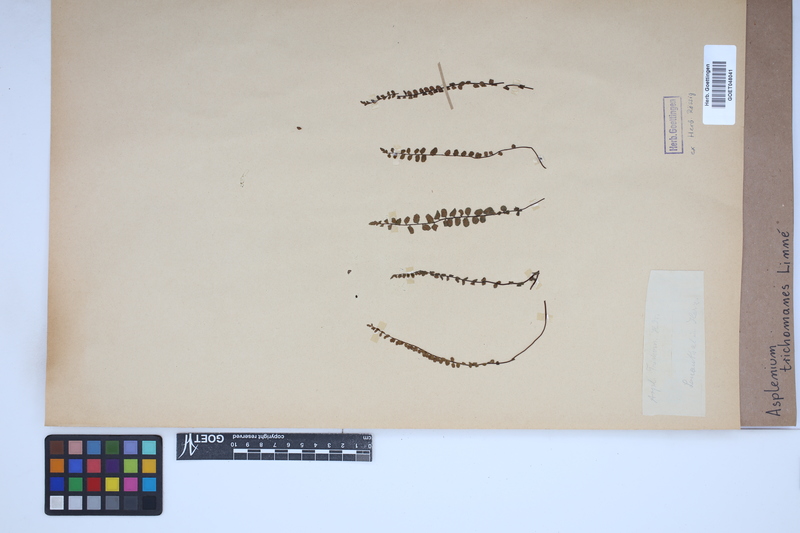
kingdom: Plantae
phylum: Tracheophyta
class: Polypodiopsida
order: Polypodiales
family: Aspleniaceae
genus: Asplenium
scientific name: Asplenium trichomanes
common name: Maidenhair spleenwort
